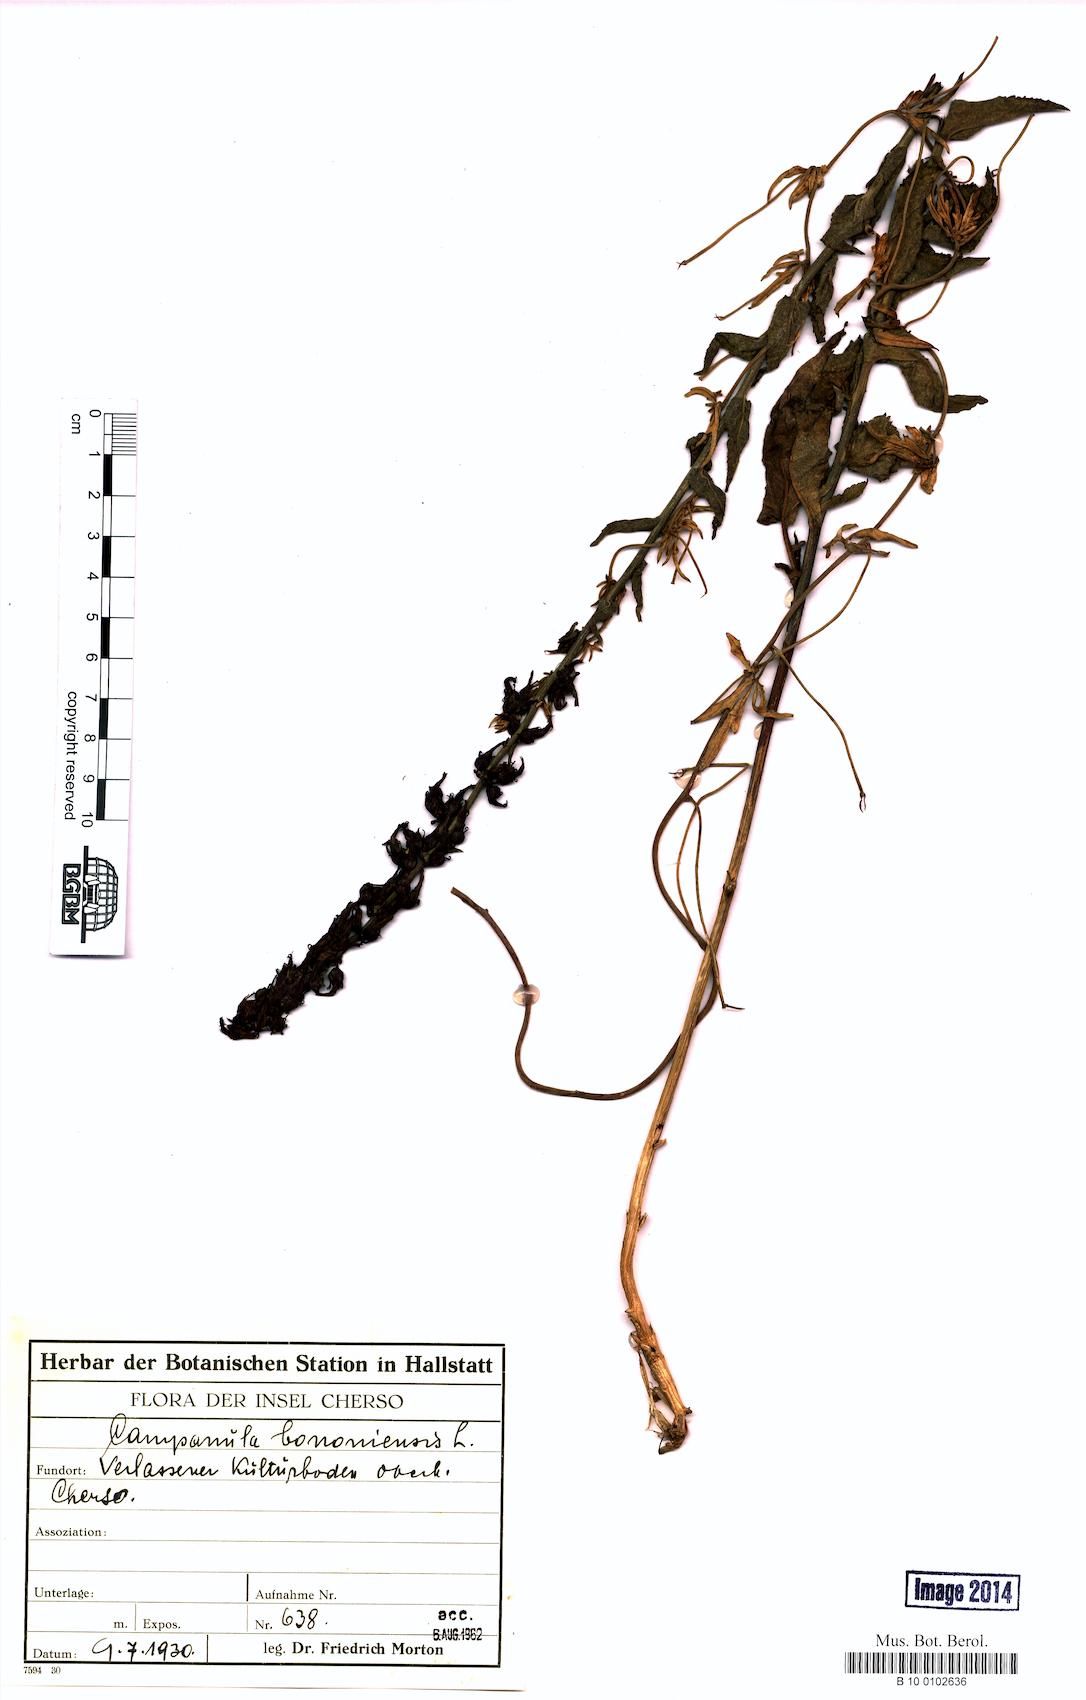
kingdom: Plantae
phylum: Tracheophyta
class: Magnoliopsida
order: Asterales
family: Campanulaceae
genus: Campanula
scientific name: Campanula bononiensis
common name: Pale bellflower
